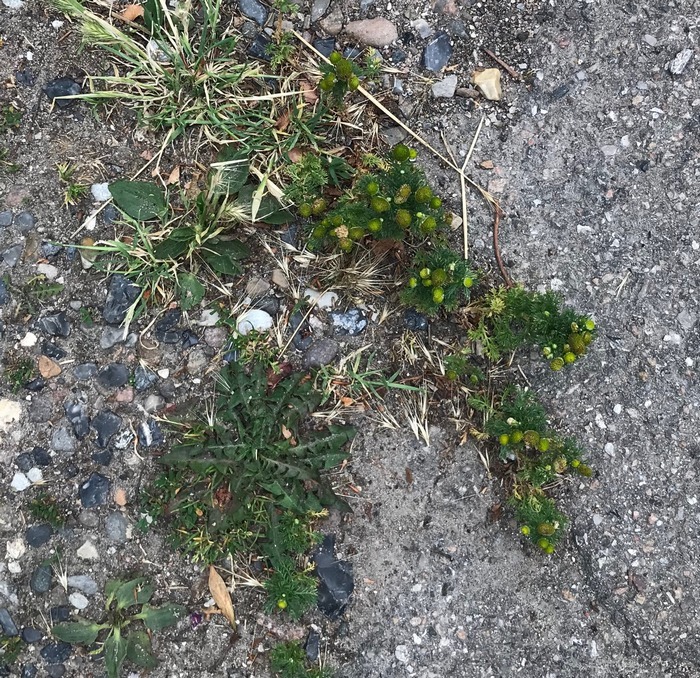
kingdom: Plantae
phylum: Tracheophyta
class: Magnoliopsida
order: Asterales
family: Asteraceae
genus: Matricaria
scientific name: Matricaria discoidea
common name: Skive-kamille
